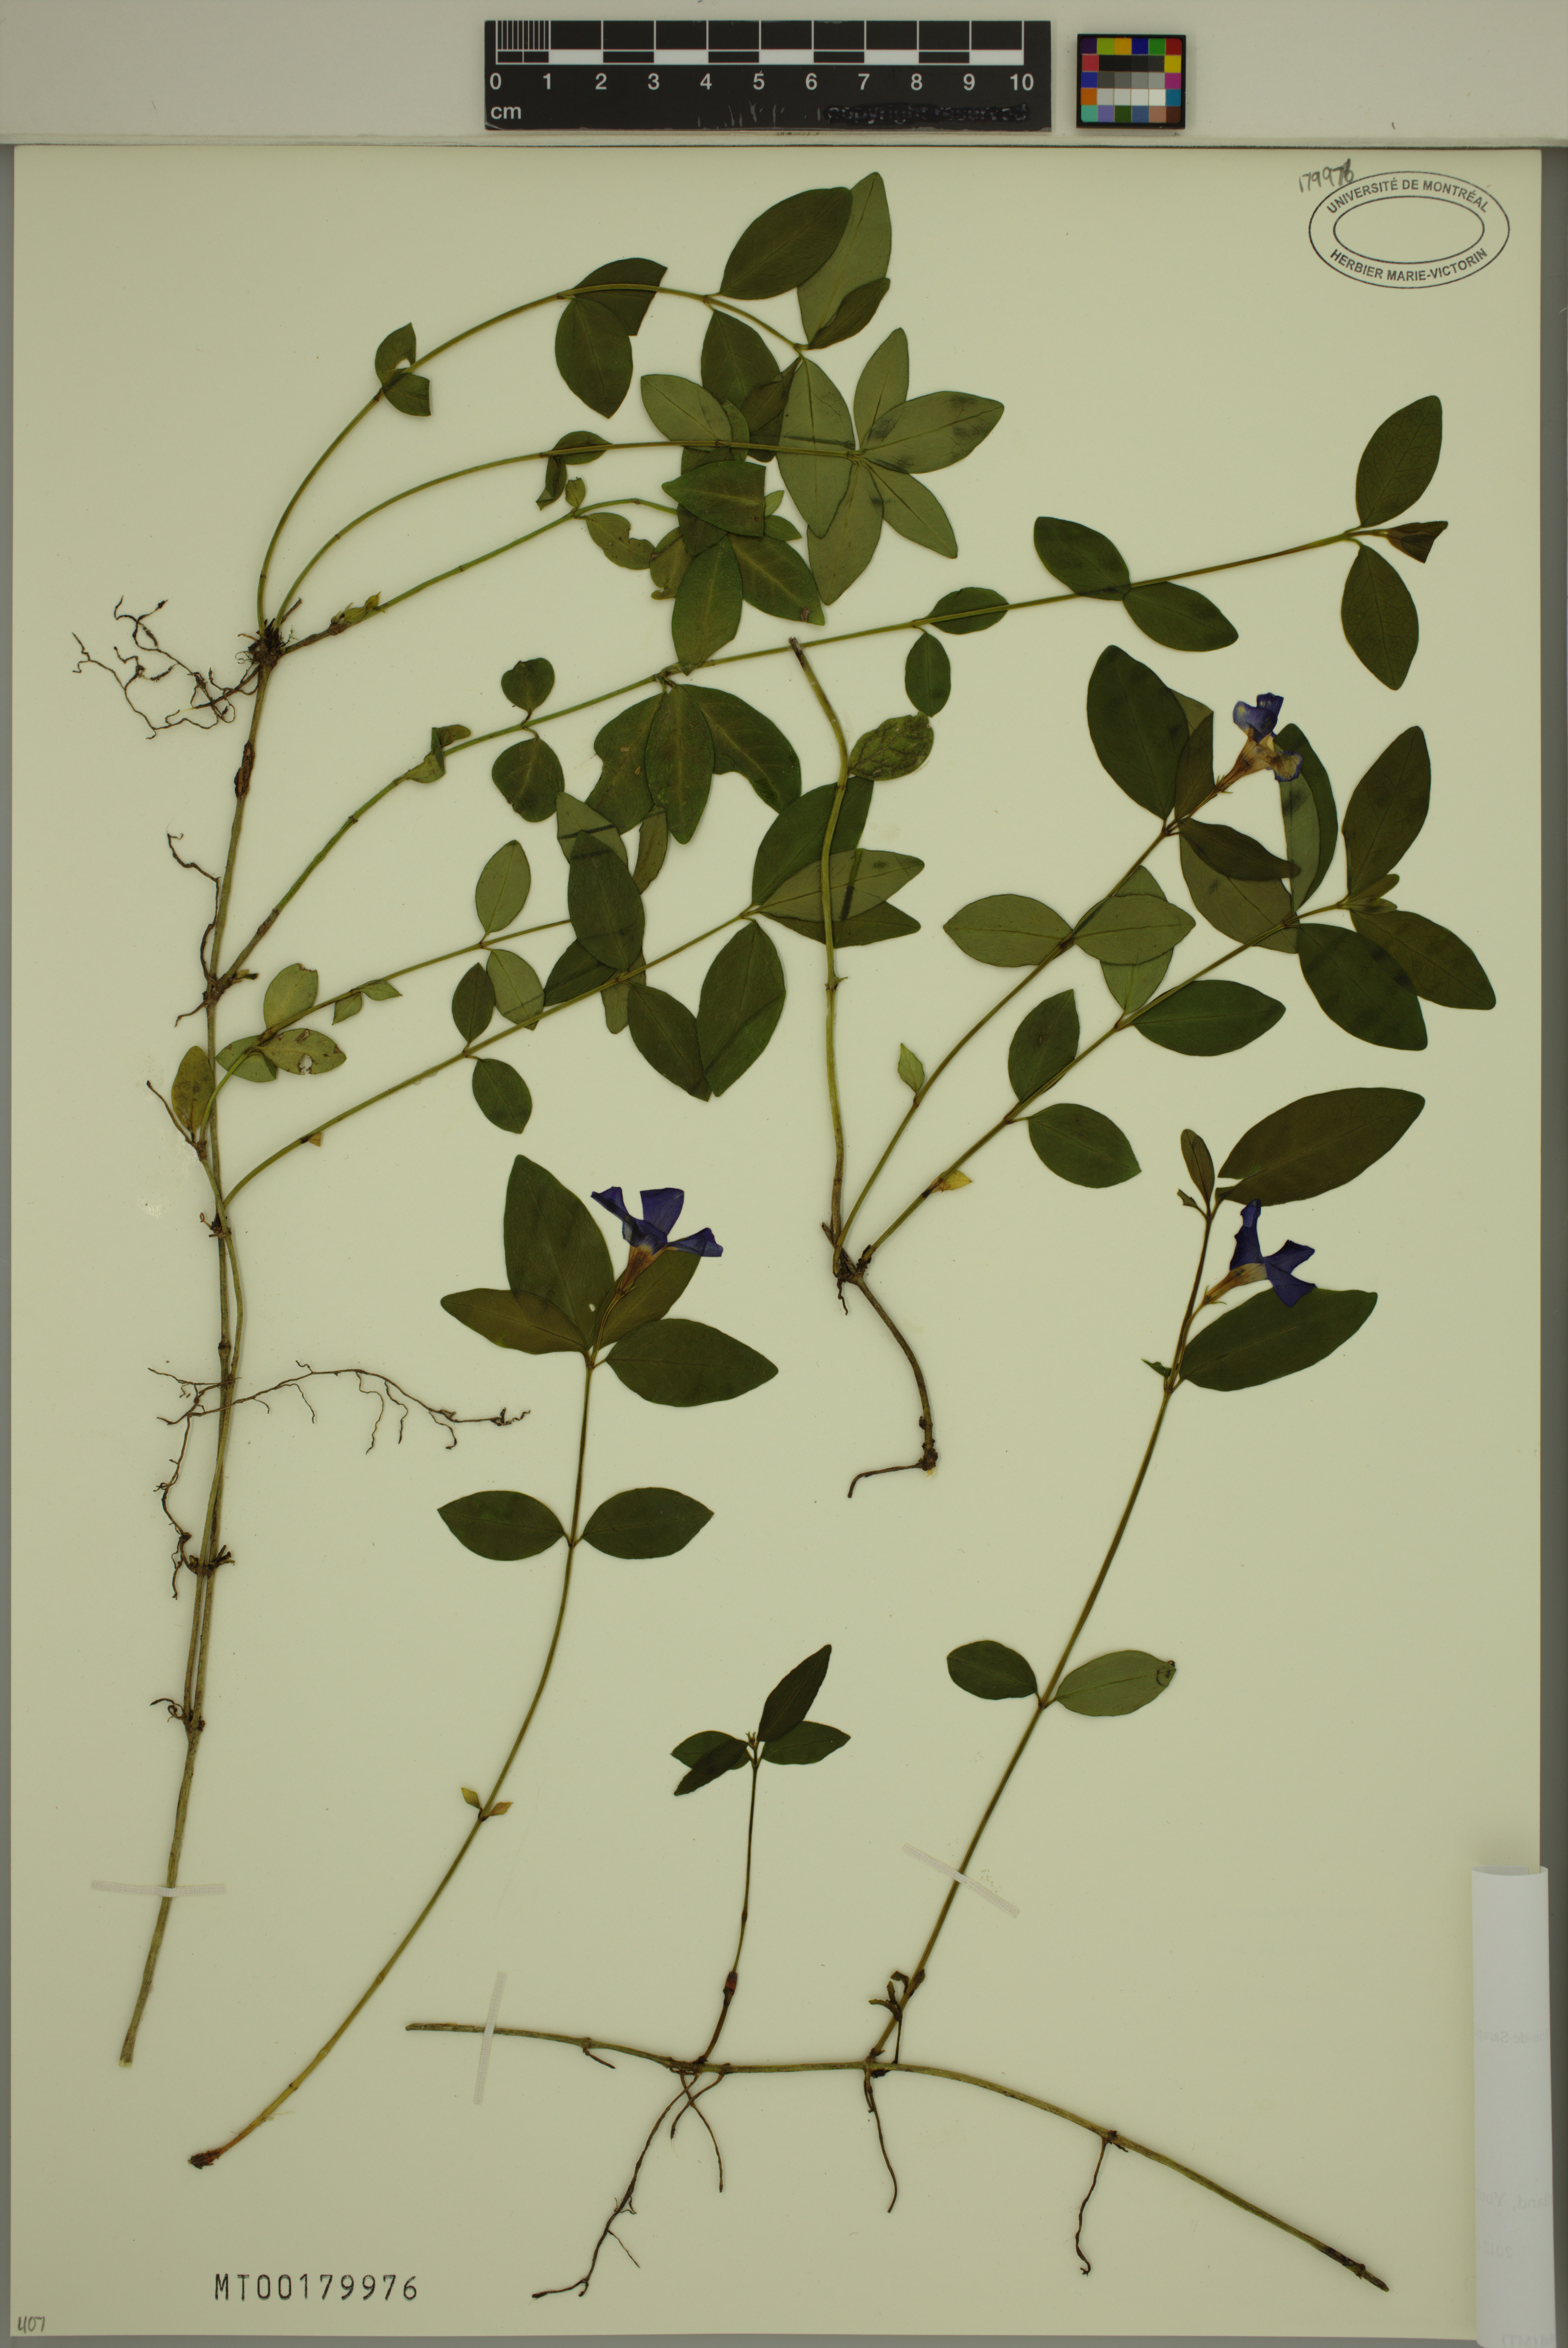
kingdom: Plantae
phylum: Tracheophyta
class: Magnoliopsida
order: Gentianales
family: Apocynaceae
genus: Vinca
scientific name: Vinca minor
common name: Lesser periwinkle
